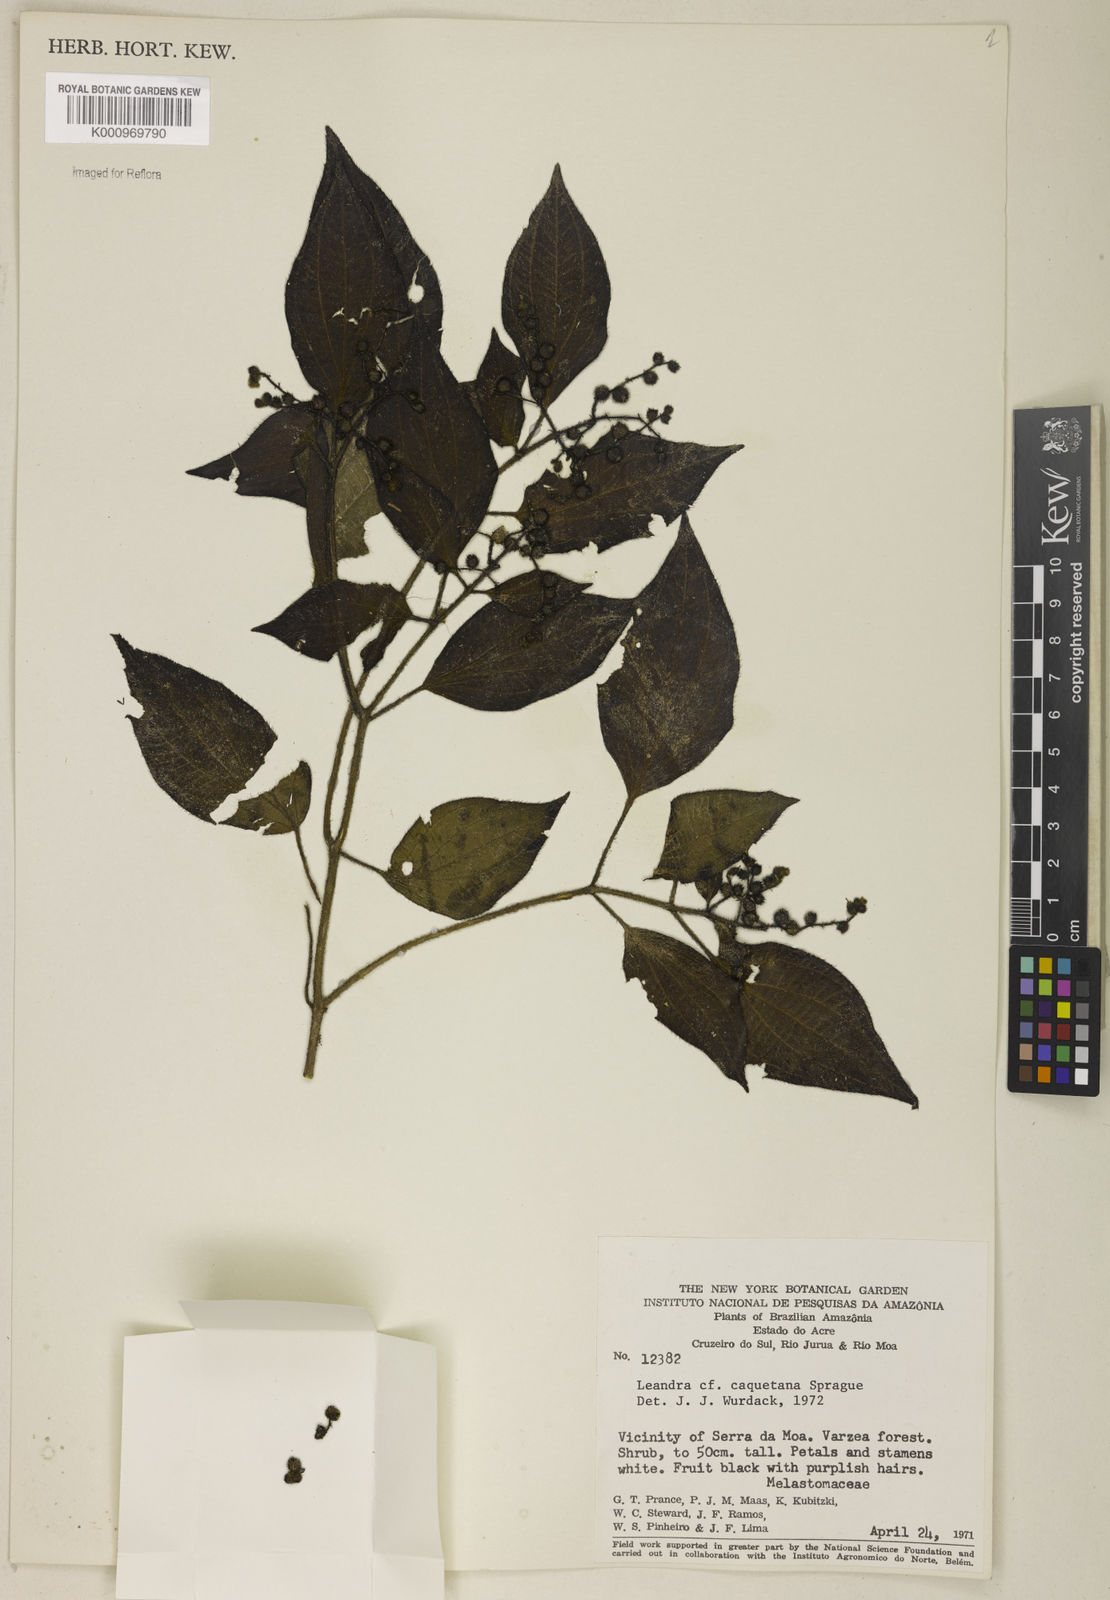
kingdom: Plantae
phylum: Tracheophyta
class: Magnoliopsida
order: Myrtales
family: Melastomataceae
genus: Miconia
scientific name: Miconia secuncaquetana
